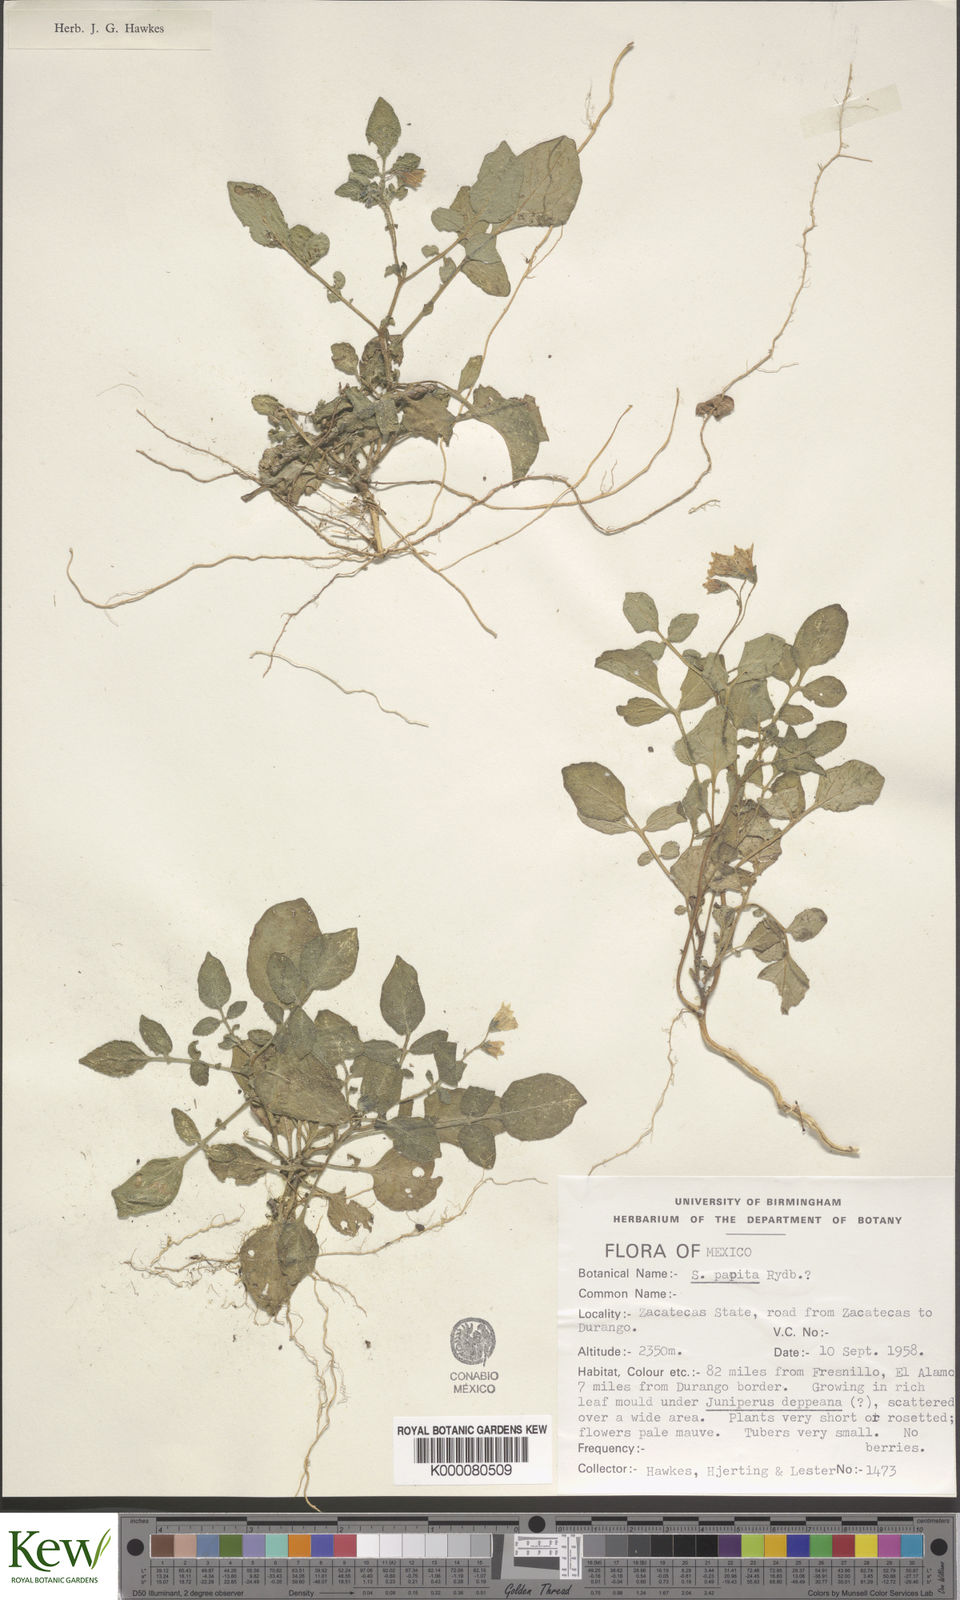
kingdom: Plantae
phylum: Tracheophyta
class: Magnoliopsida
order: Solanales
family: Solanaceae
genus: Solanum
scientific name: Solanum stoloniferum
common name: Fendler's nighshade
